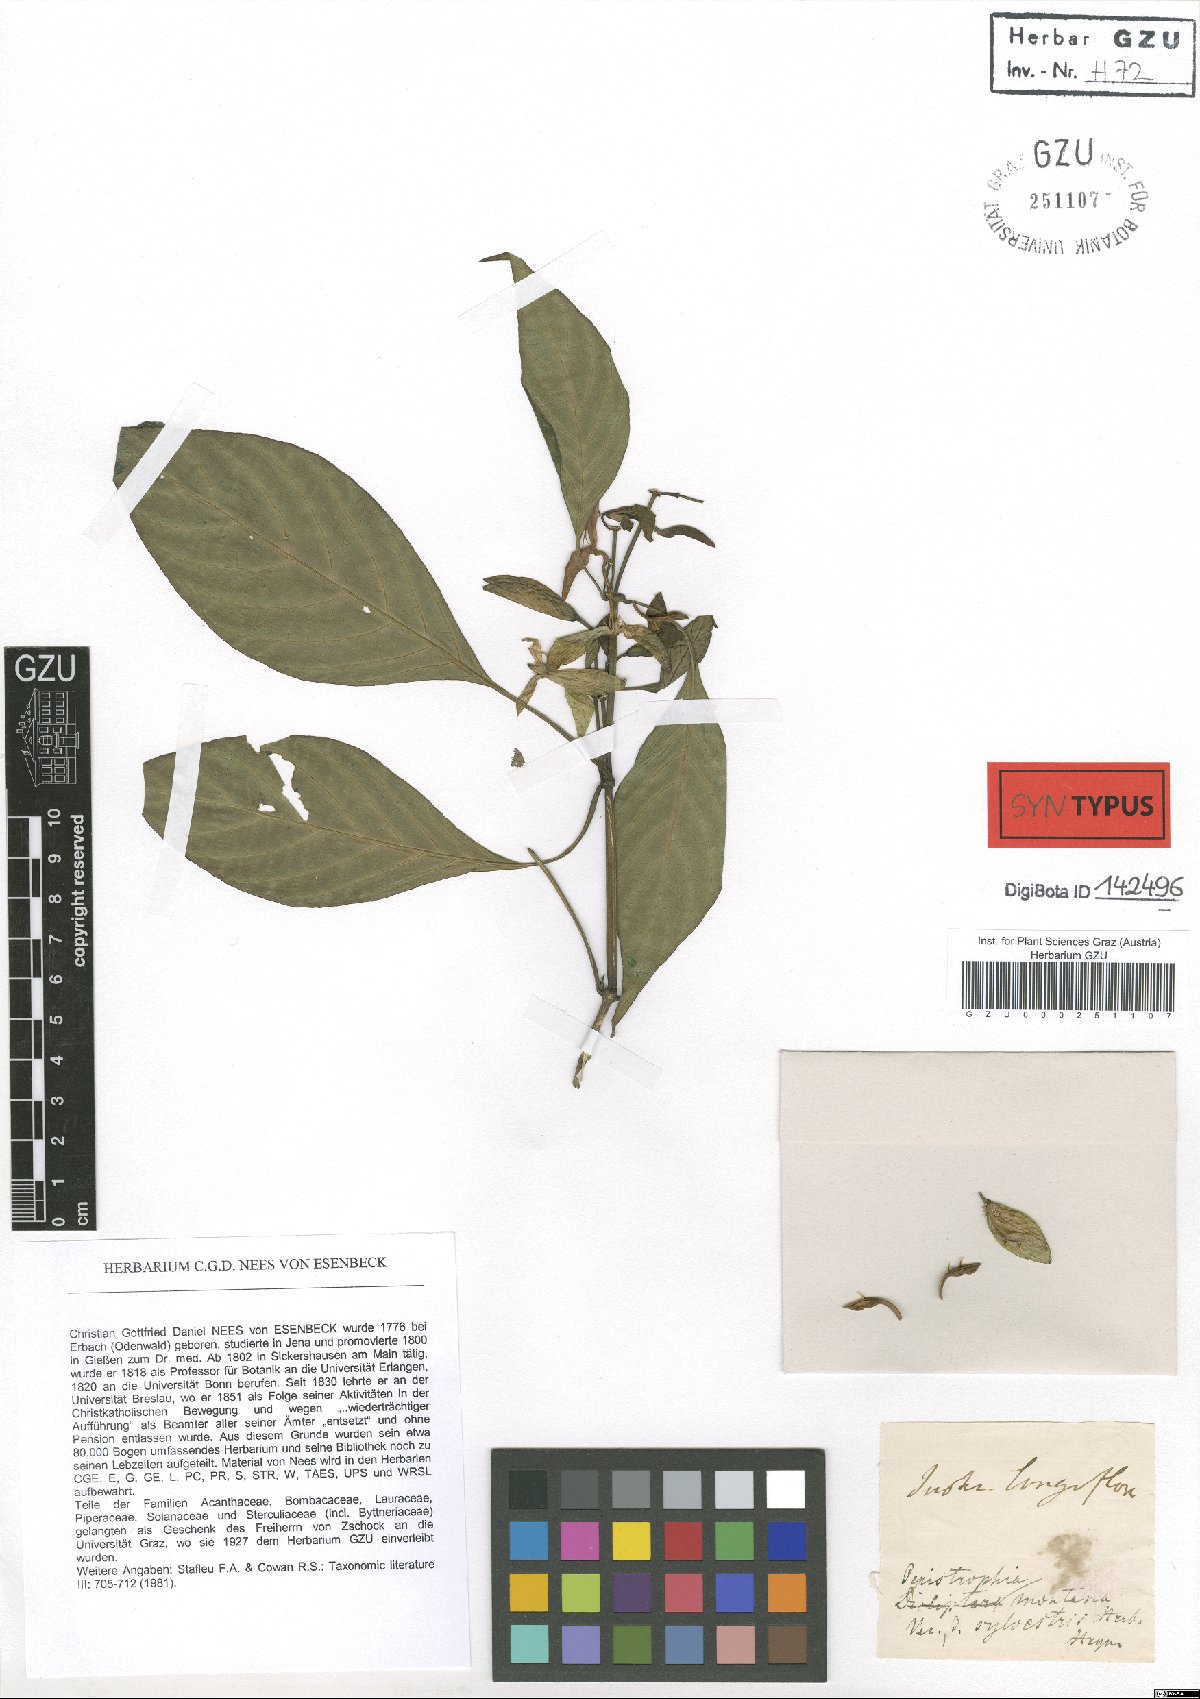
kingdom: Plantae
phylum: Tracheophyta
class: Magnoliopsida
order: Lamiales
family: Acanthaceae
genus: Dicliptera
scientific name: Dicliptera baphica
